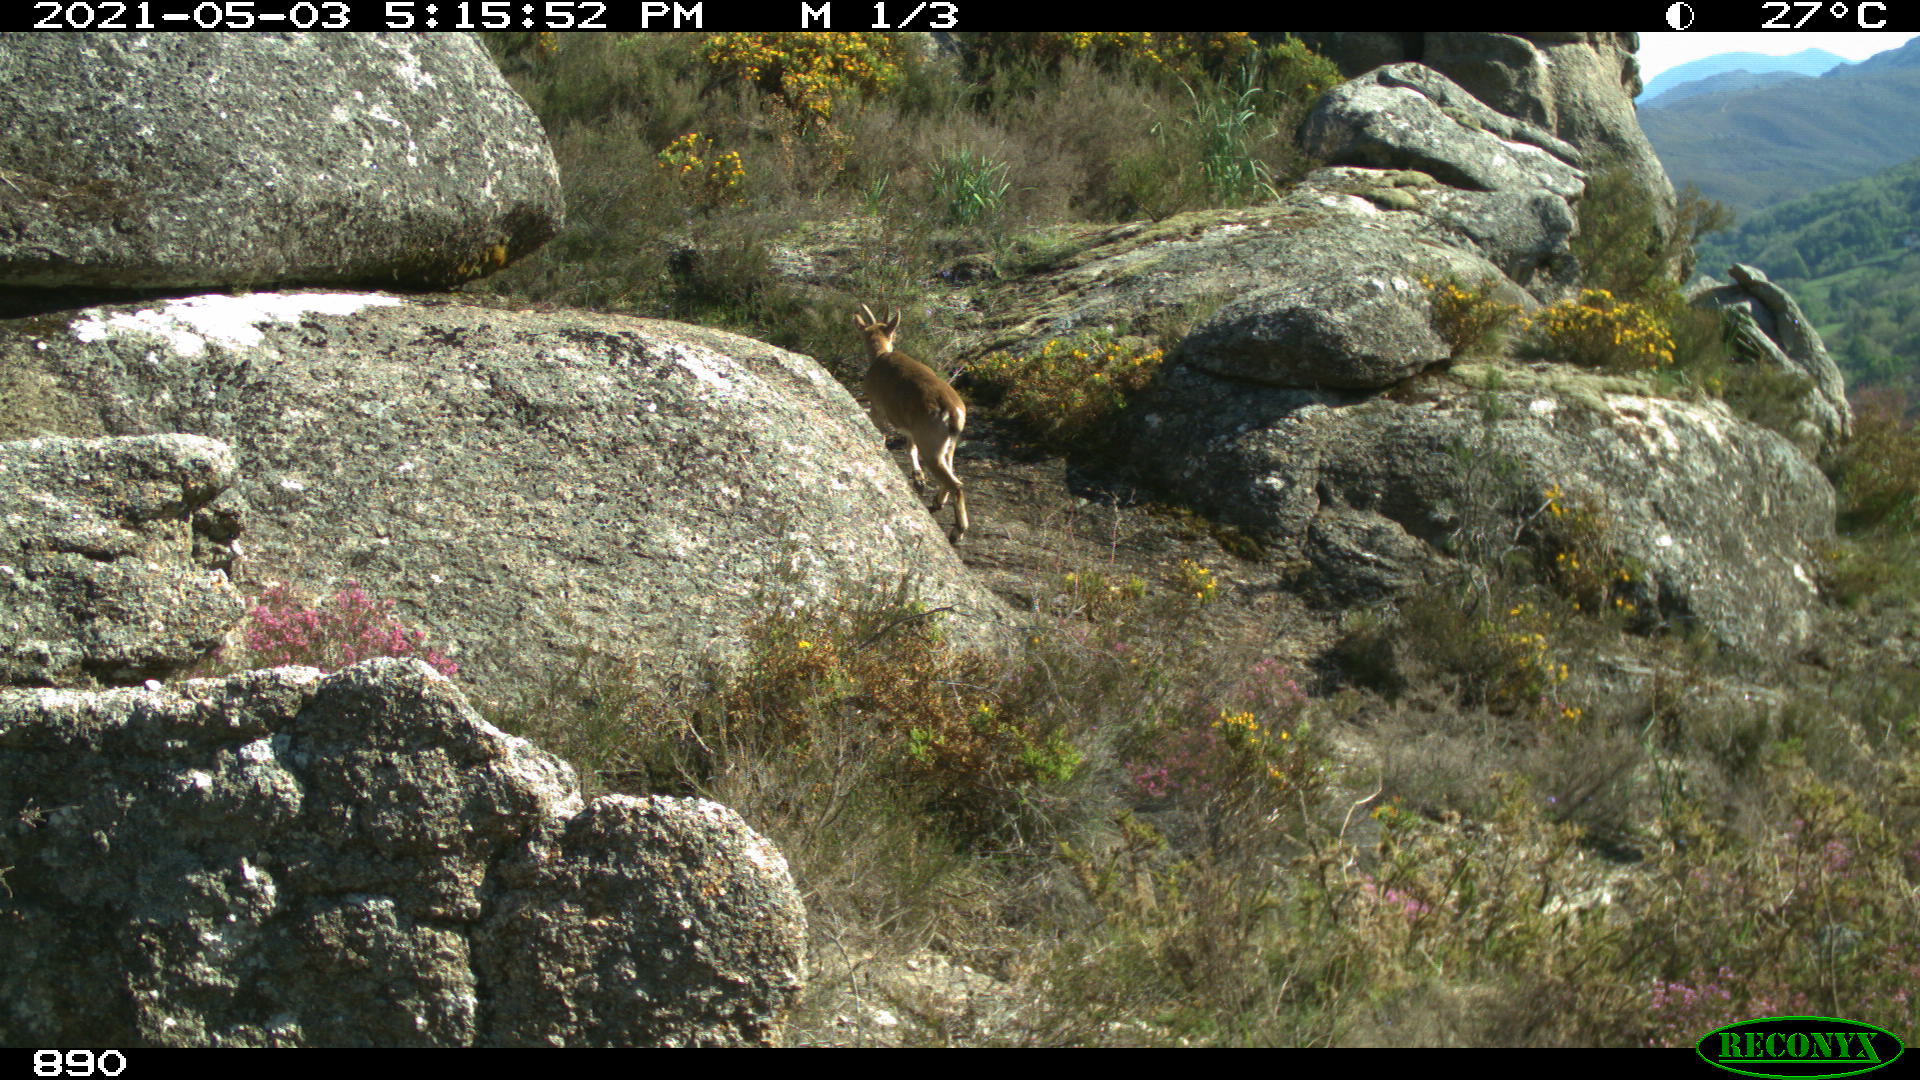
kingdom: Animalia
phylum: Chordata
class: Mammalia
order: Artiodactyla
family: Bovidae
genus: Capra
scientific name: Capra pyrenaica
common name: Spanish ibex
